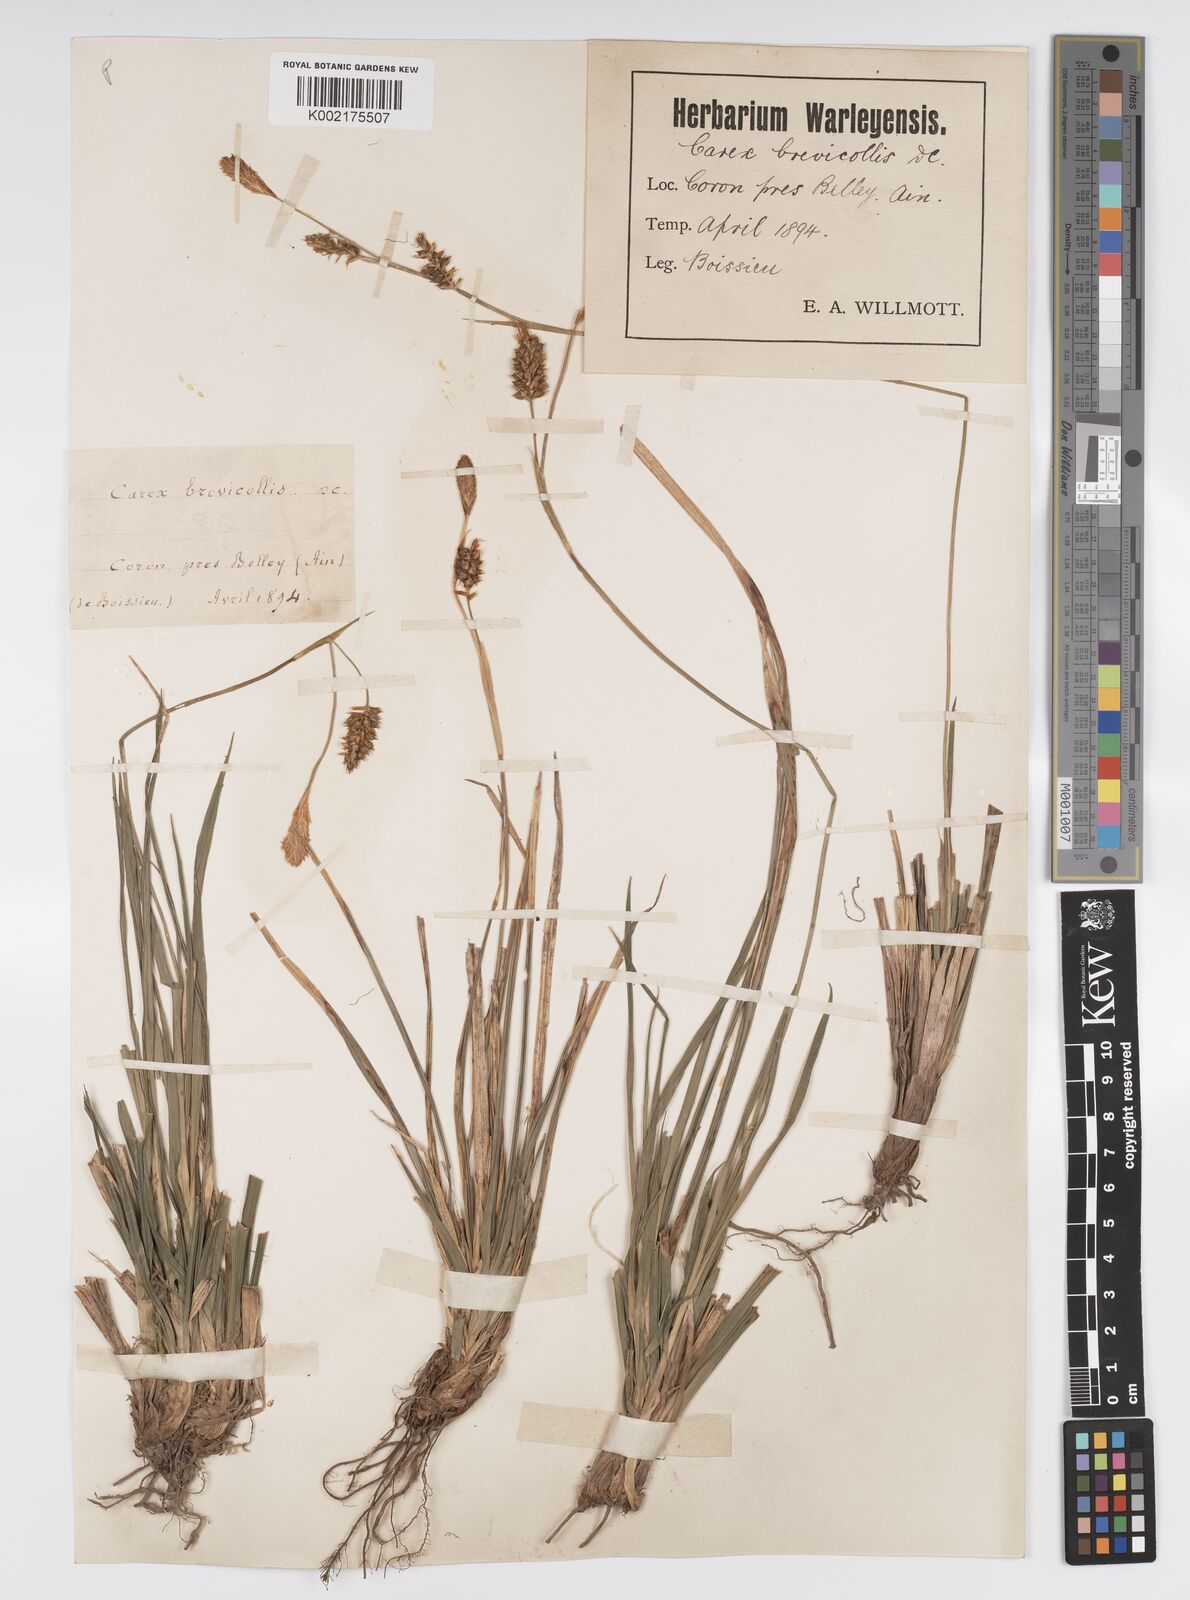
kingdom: Plantae
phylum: Tracheophyta
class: Liliopsida
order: Poales
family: Cyperaceae
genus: Carex
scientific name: Carex brevicollis
